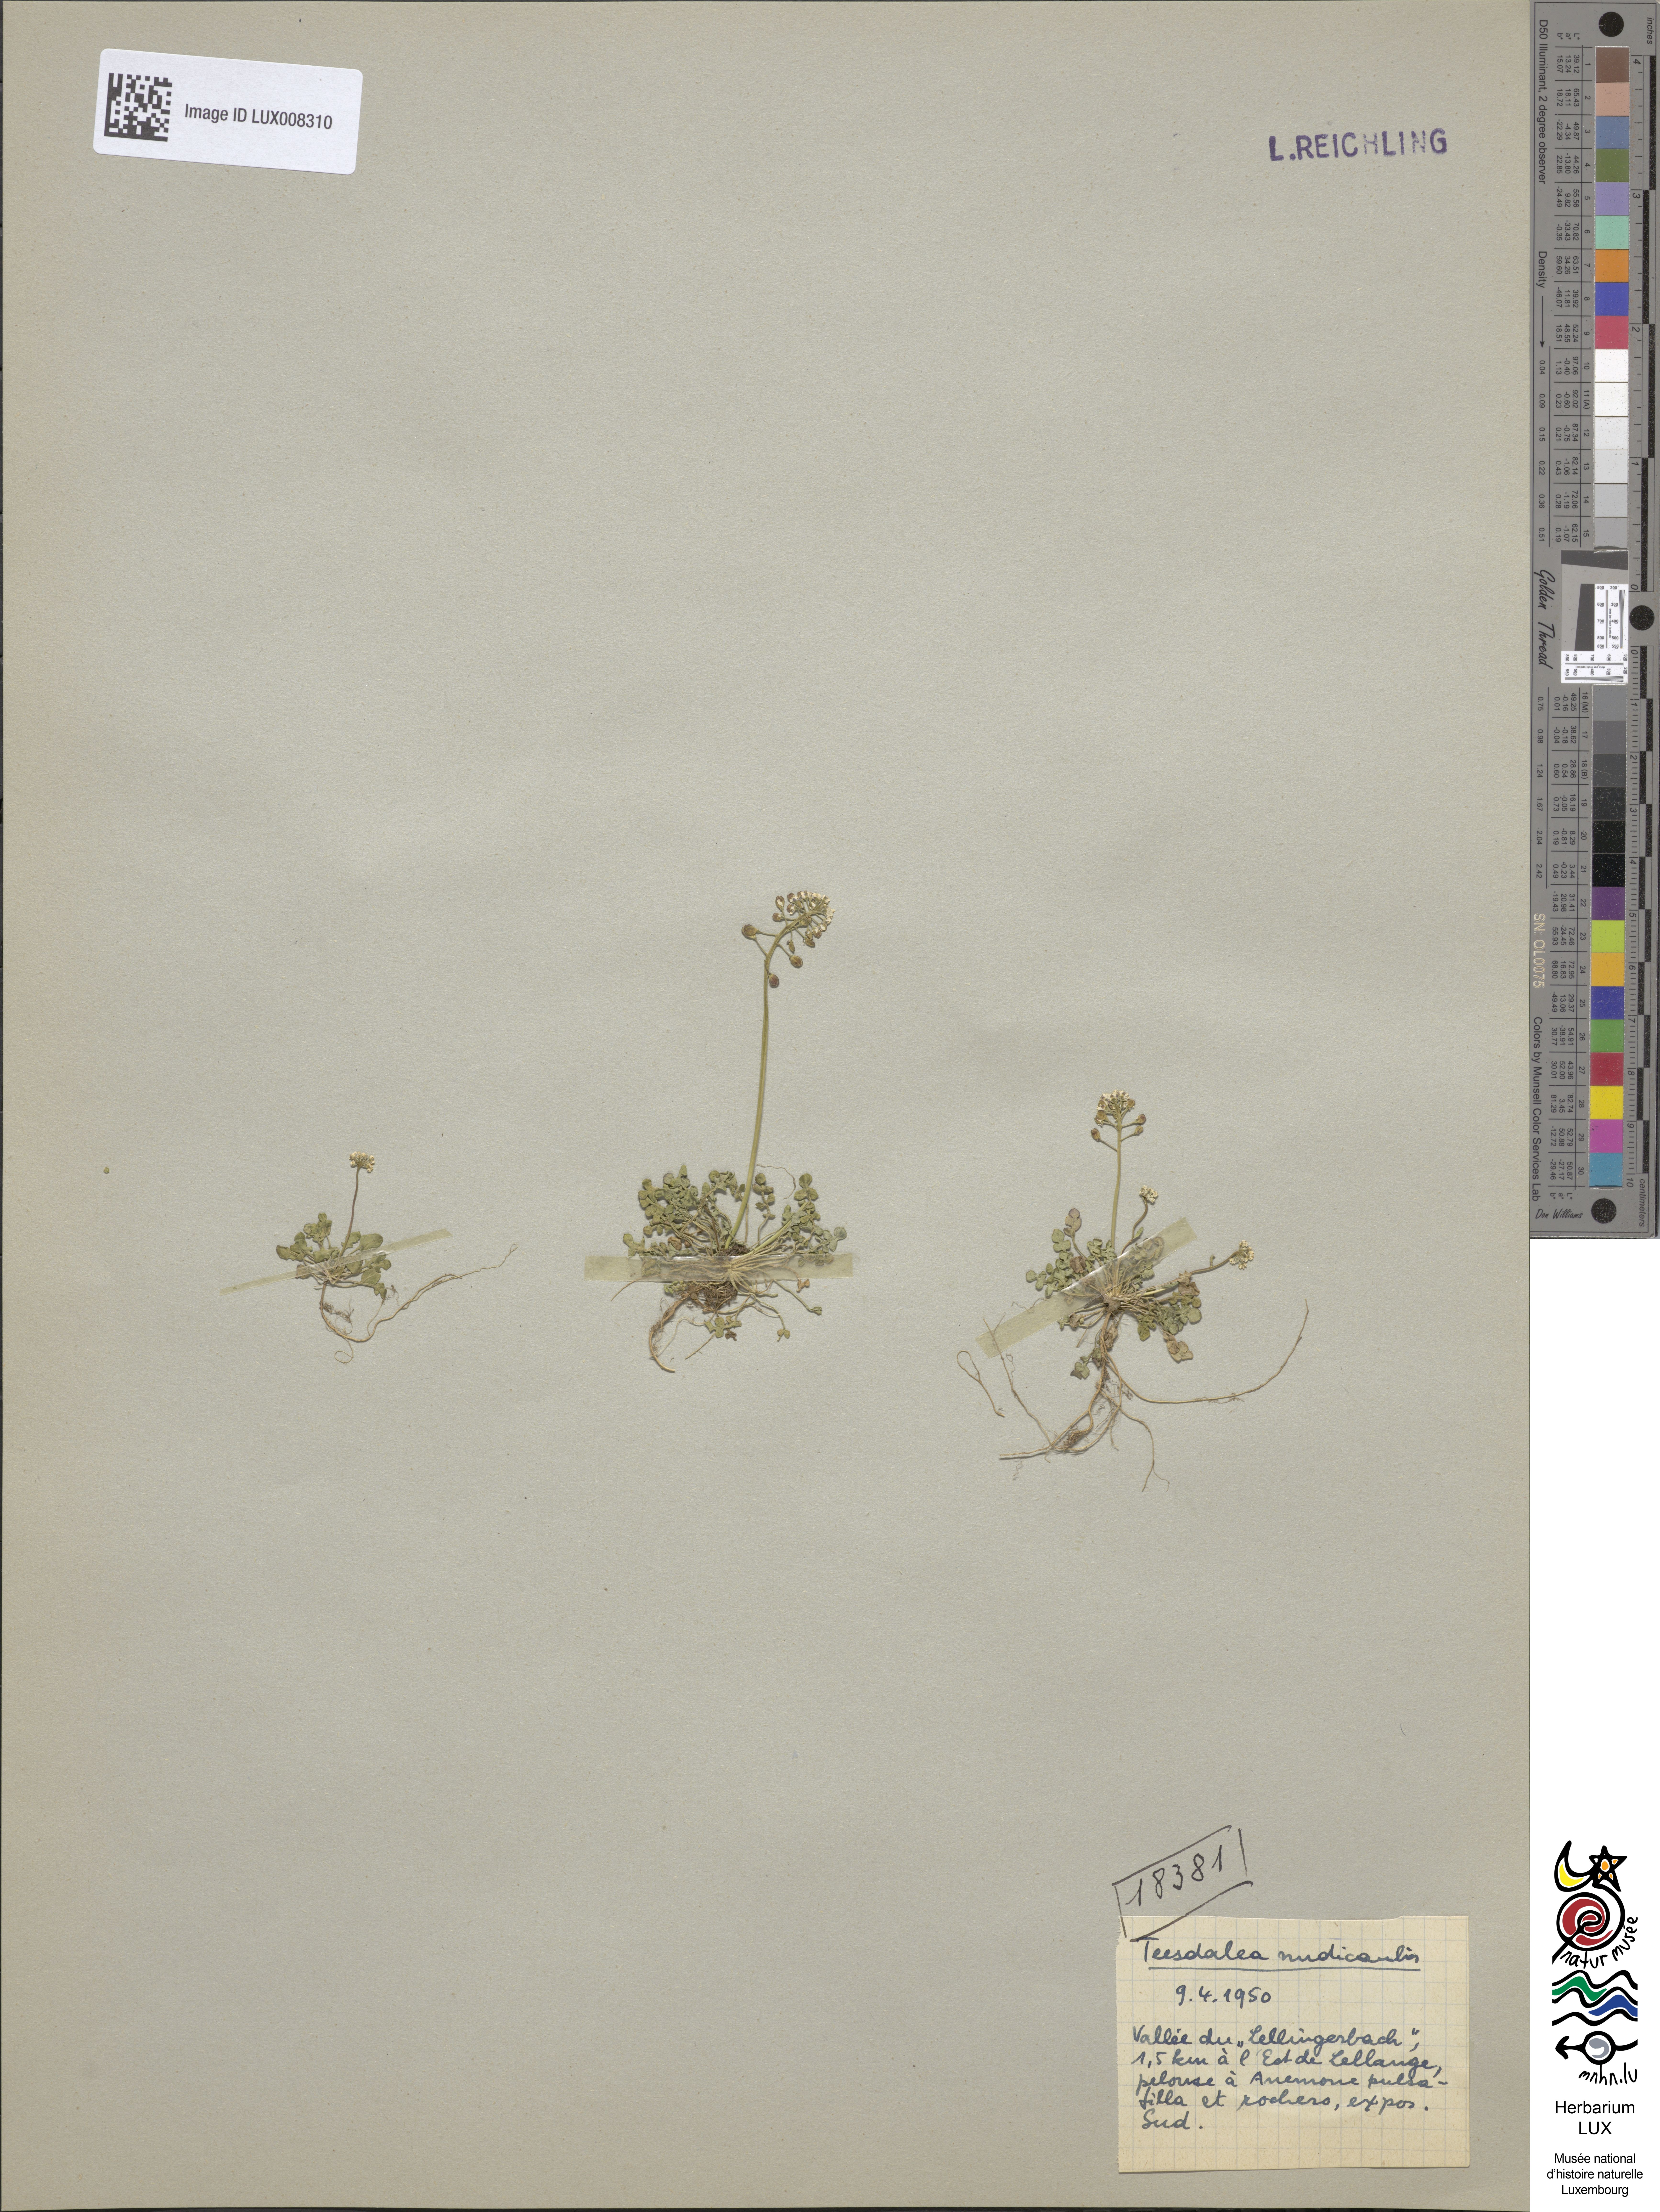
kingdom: Plantae
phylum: Tracheophyta
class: Magnoliopsida
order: Brassicales
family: Brassicaceae
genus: Teesdalia
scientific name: Teesdalia nudicaulis
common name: Shepherd's cress
